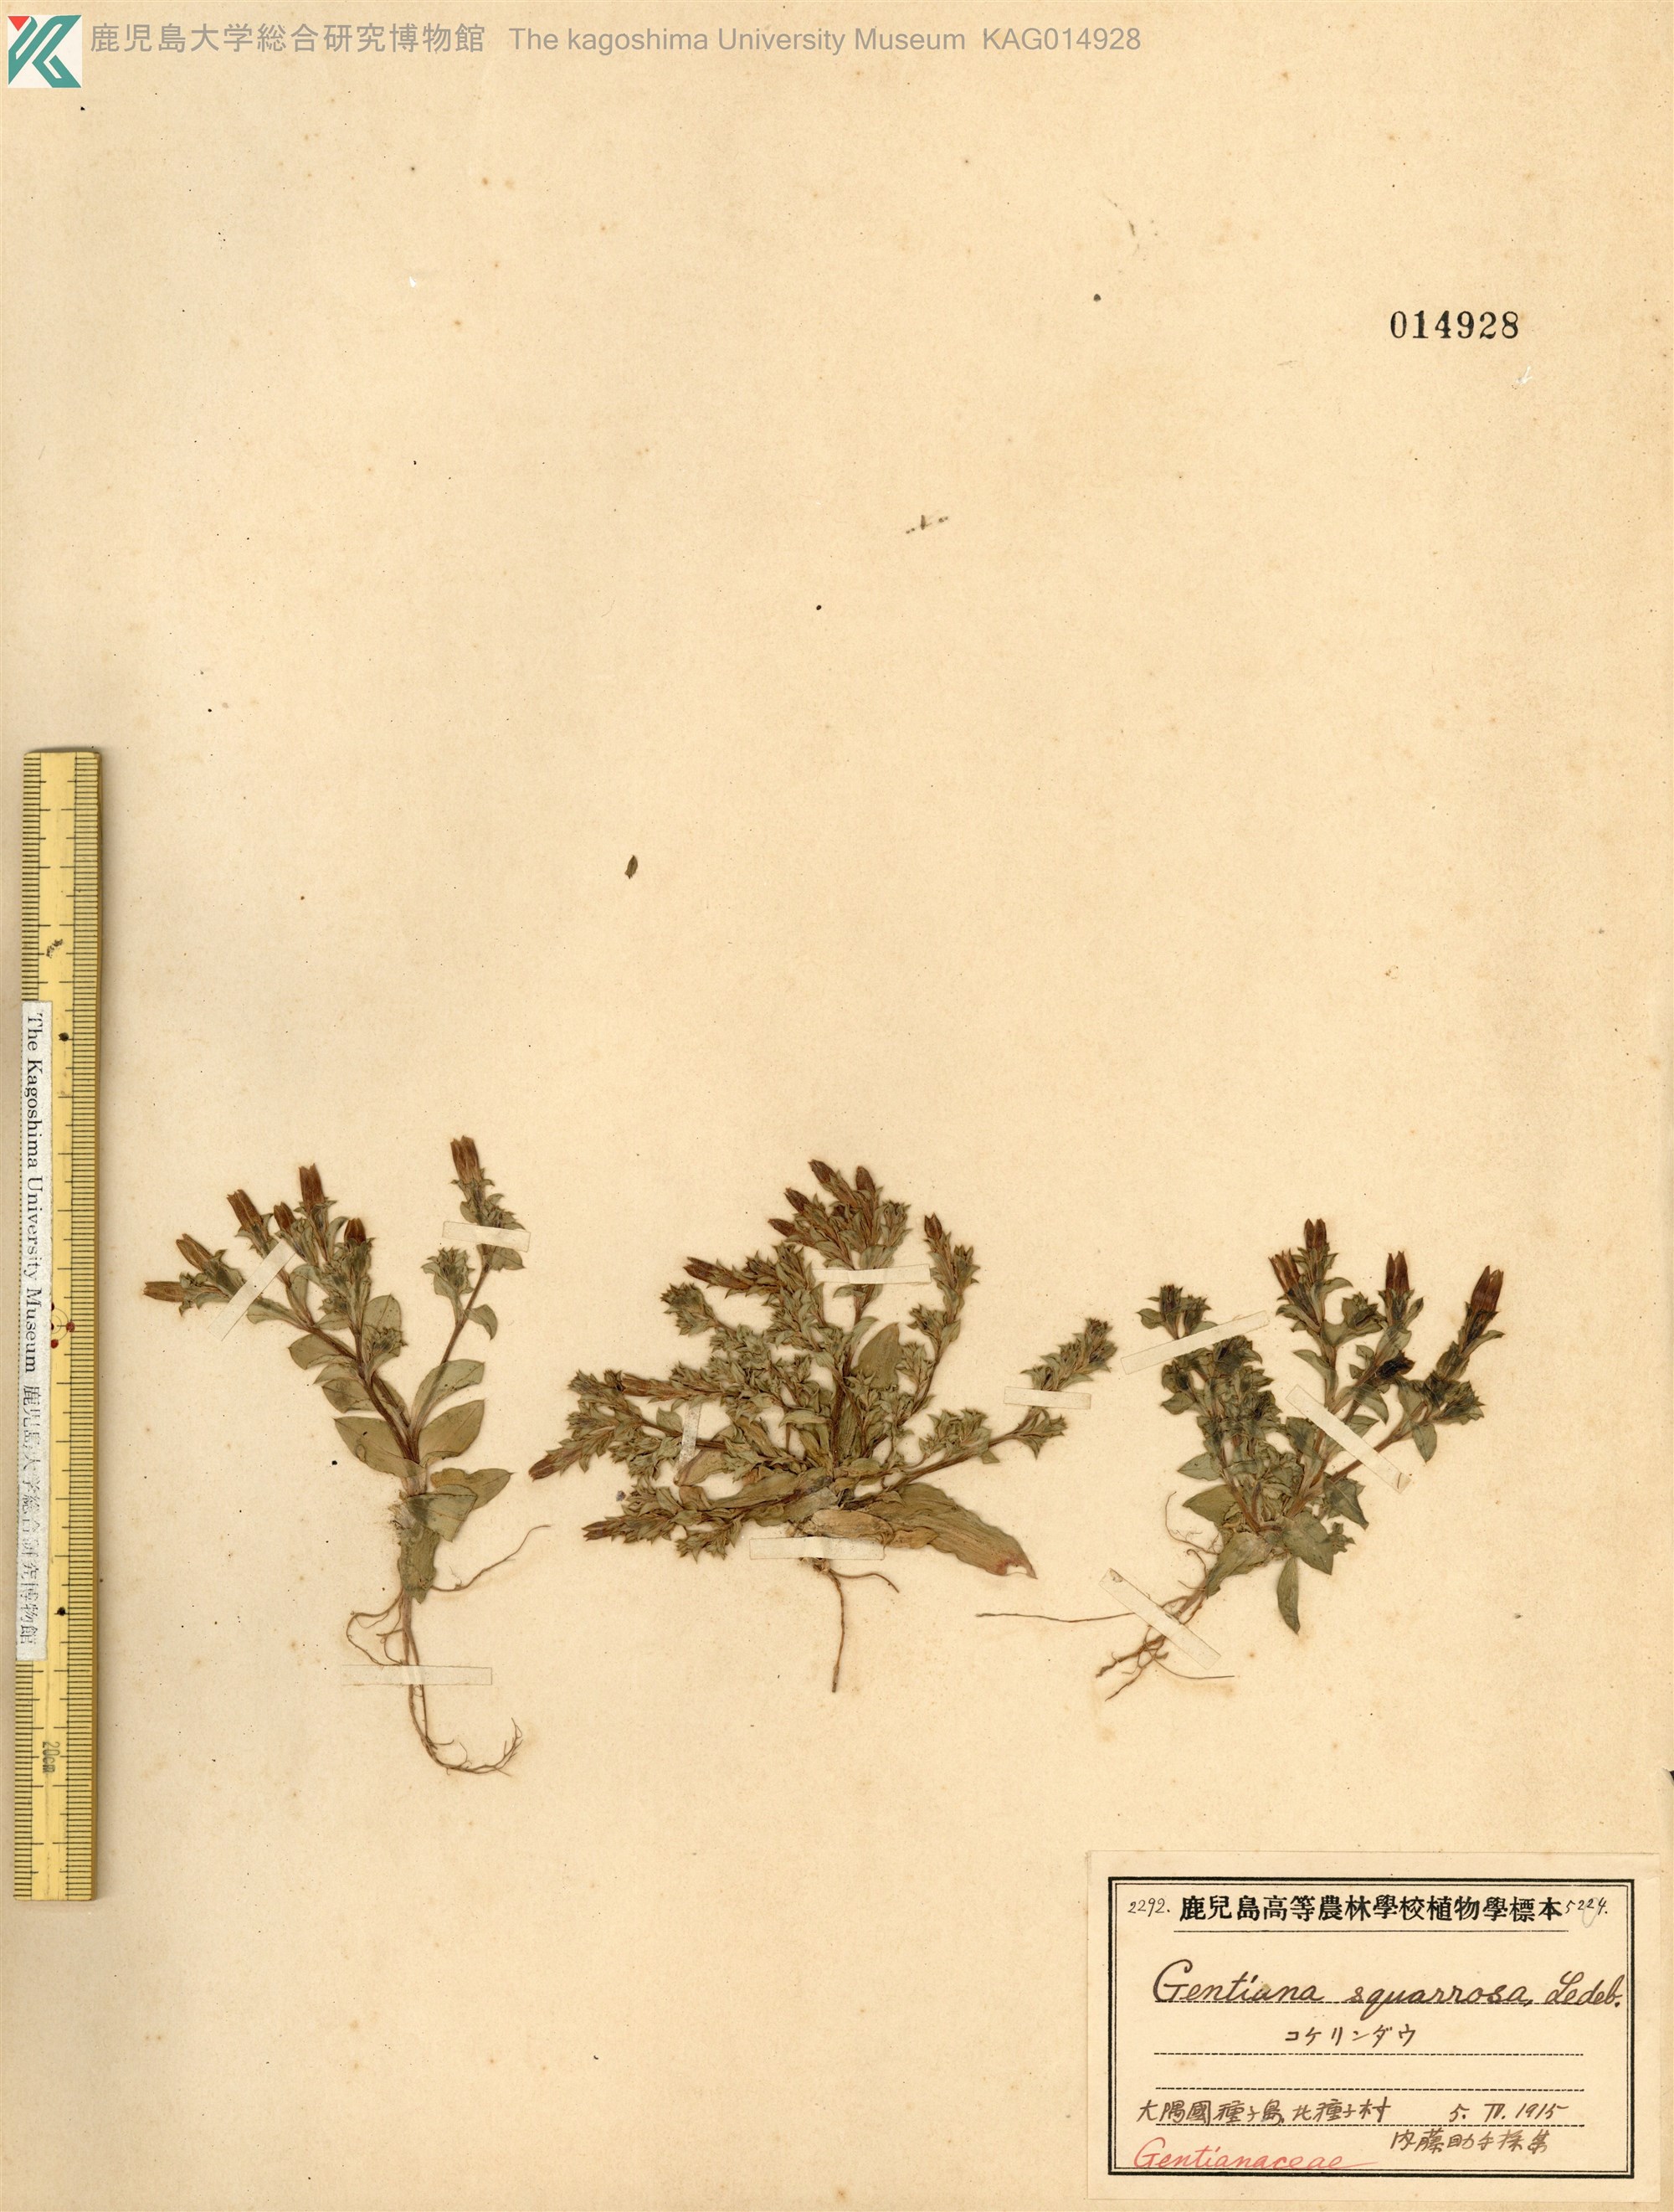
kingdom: Plantae
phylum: Tracheophyta
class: Magnoliopsida
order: Gentianales
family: Gentianaceae
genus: Gentiana
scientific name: Gentiana squarrosa
